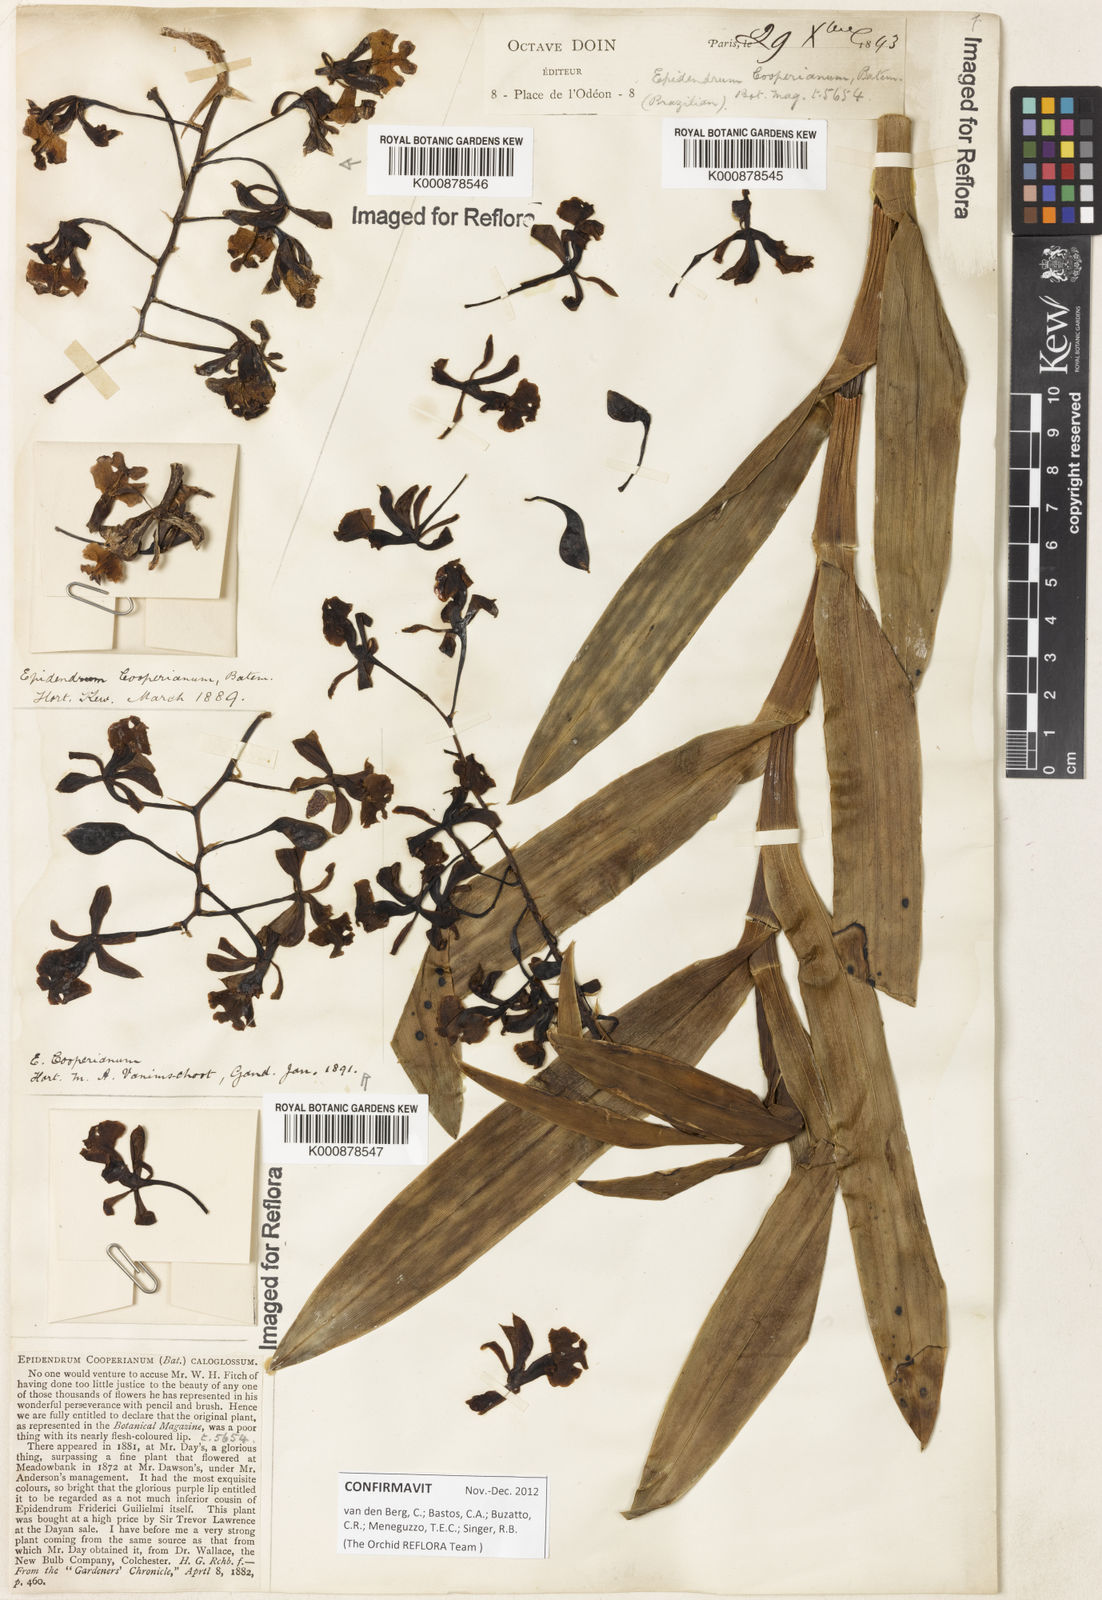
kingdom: Plantae
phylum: Tracheophyta
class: Liliopsida
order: Asparagales
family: Orchidaceae
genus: Epidendrum
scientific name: Epidendrum cooperianum
